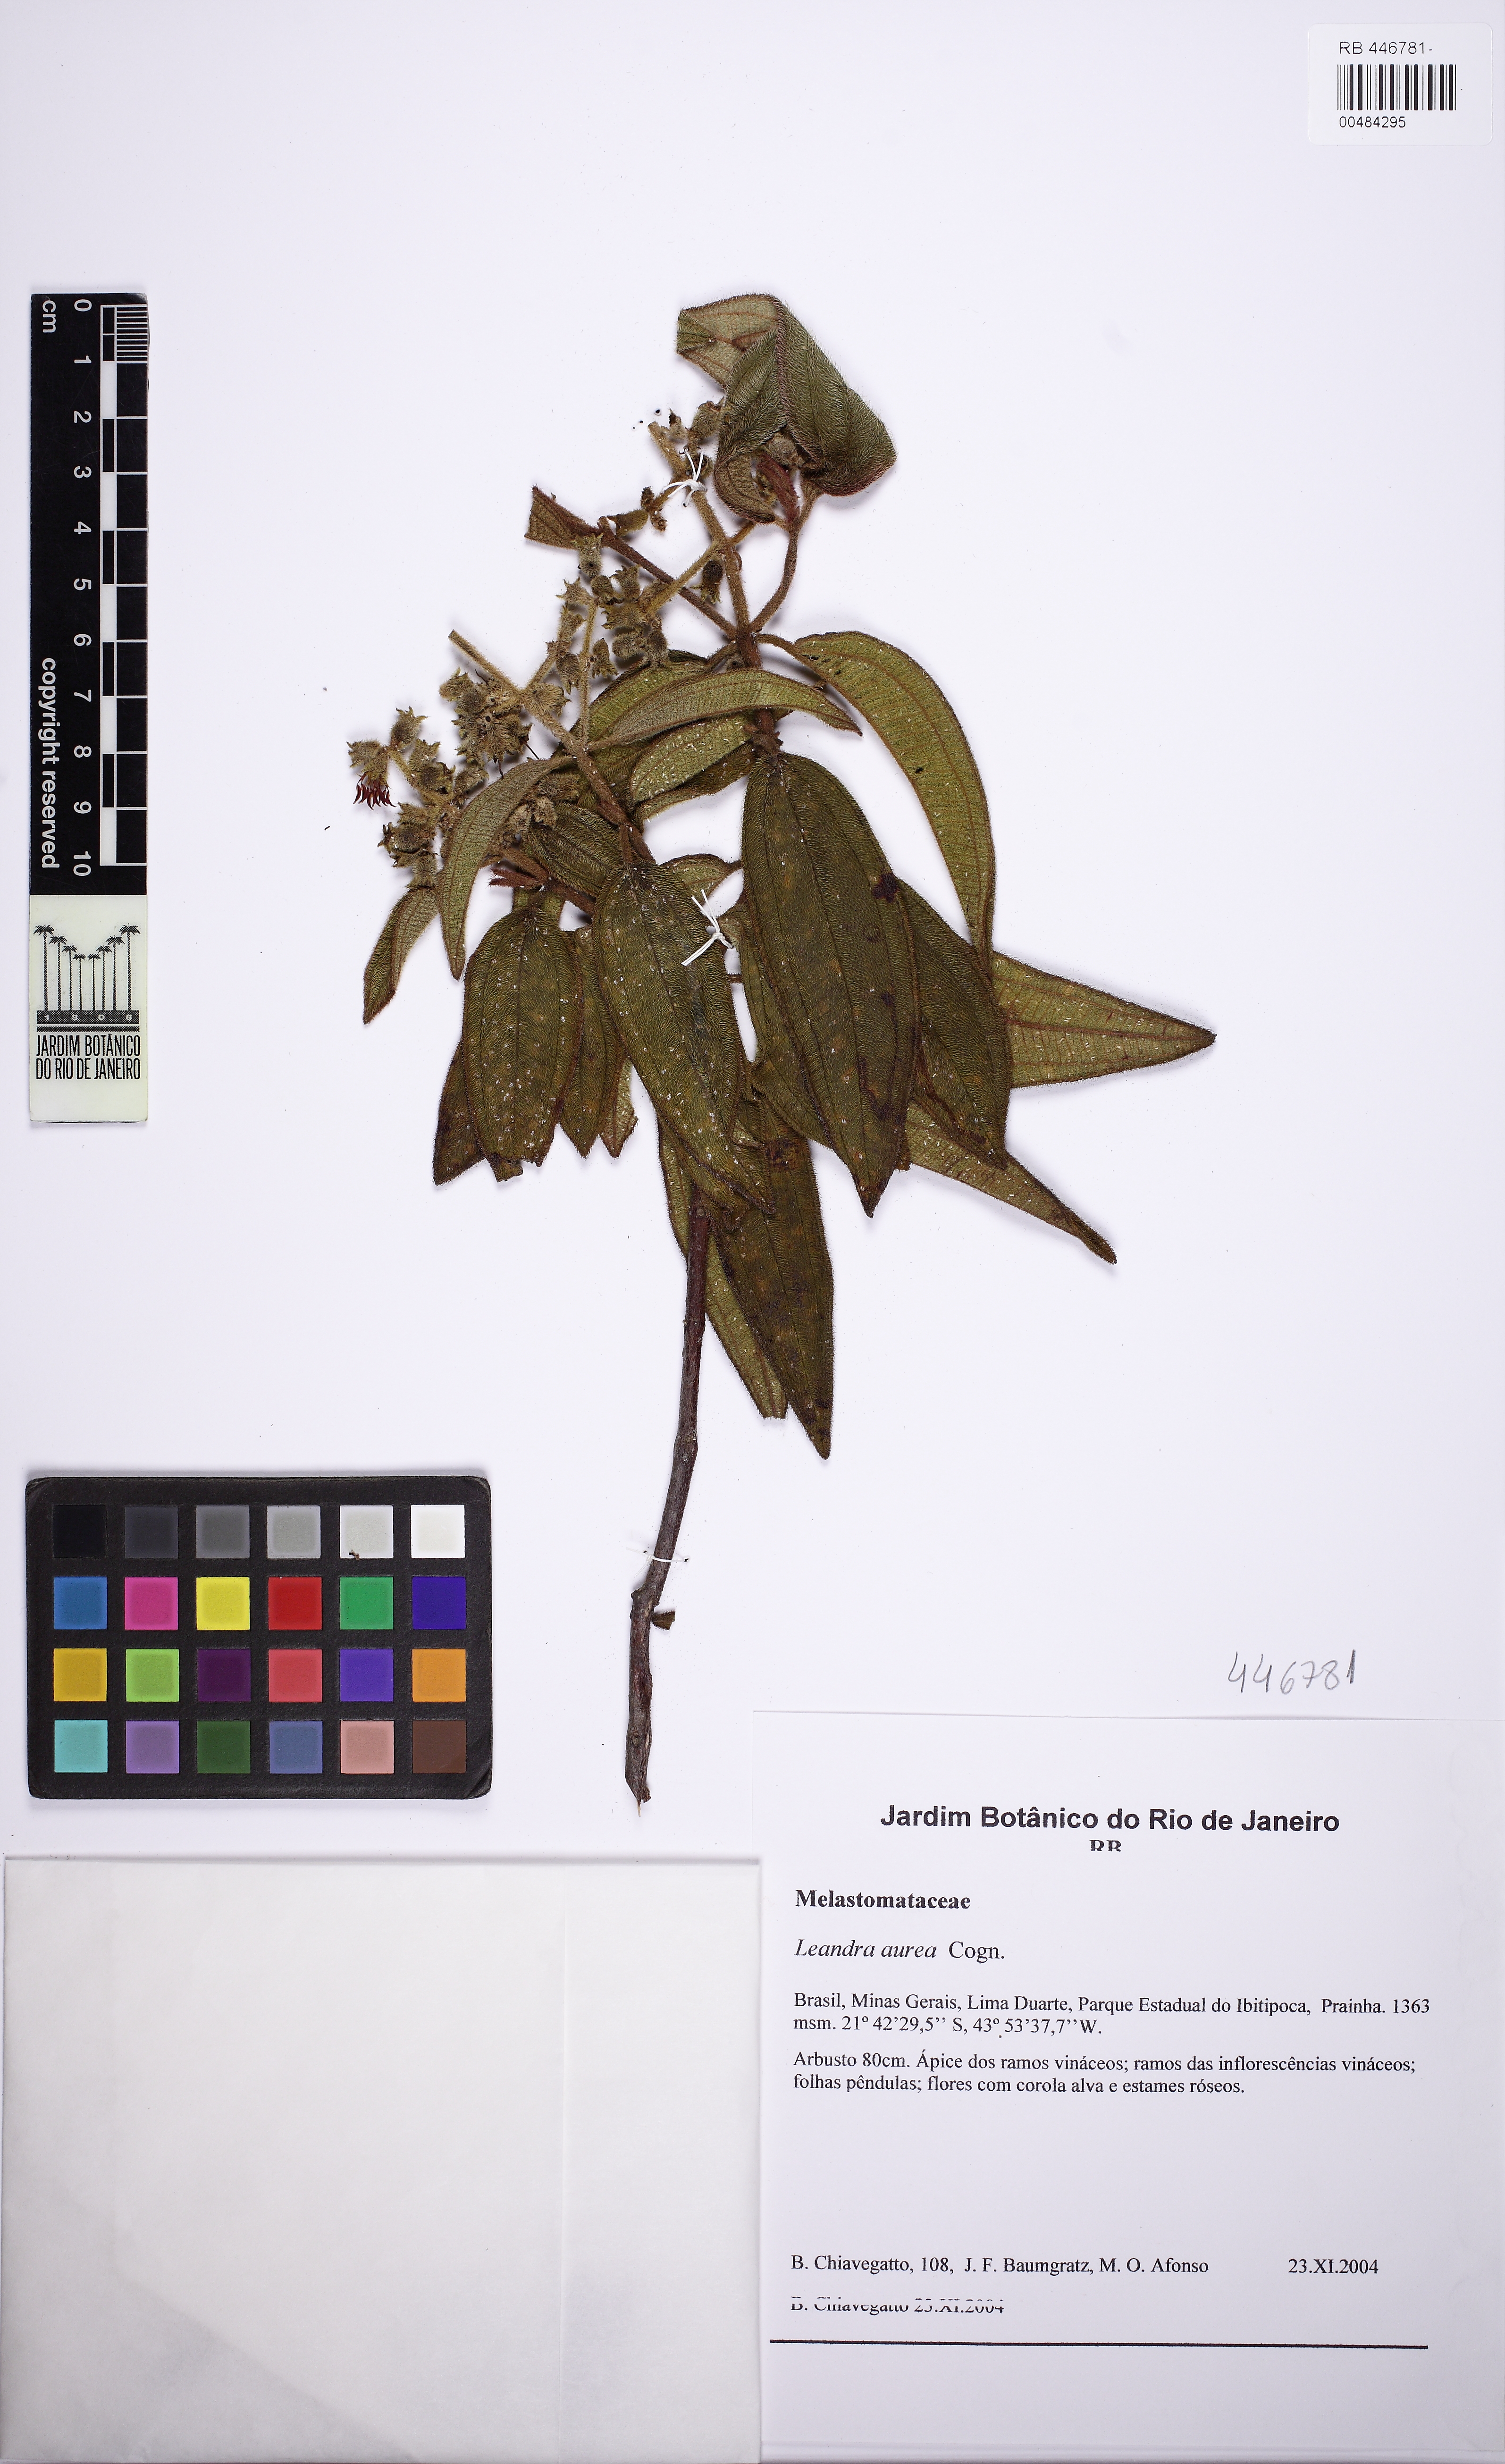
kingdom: Plantae
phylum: Tracheophyta
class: Magnoliopsida
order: Myrtales
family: Melastomataceae
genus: Miconia
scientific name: Miconia auricoma
